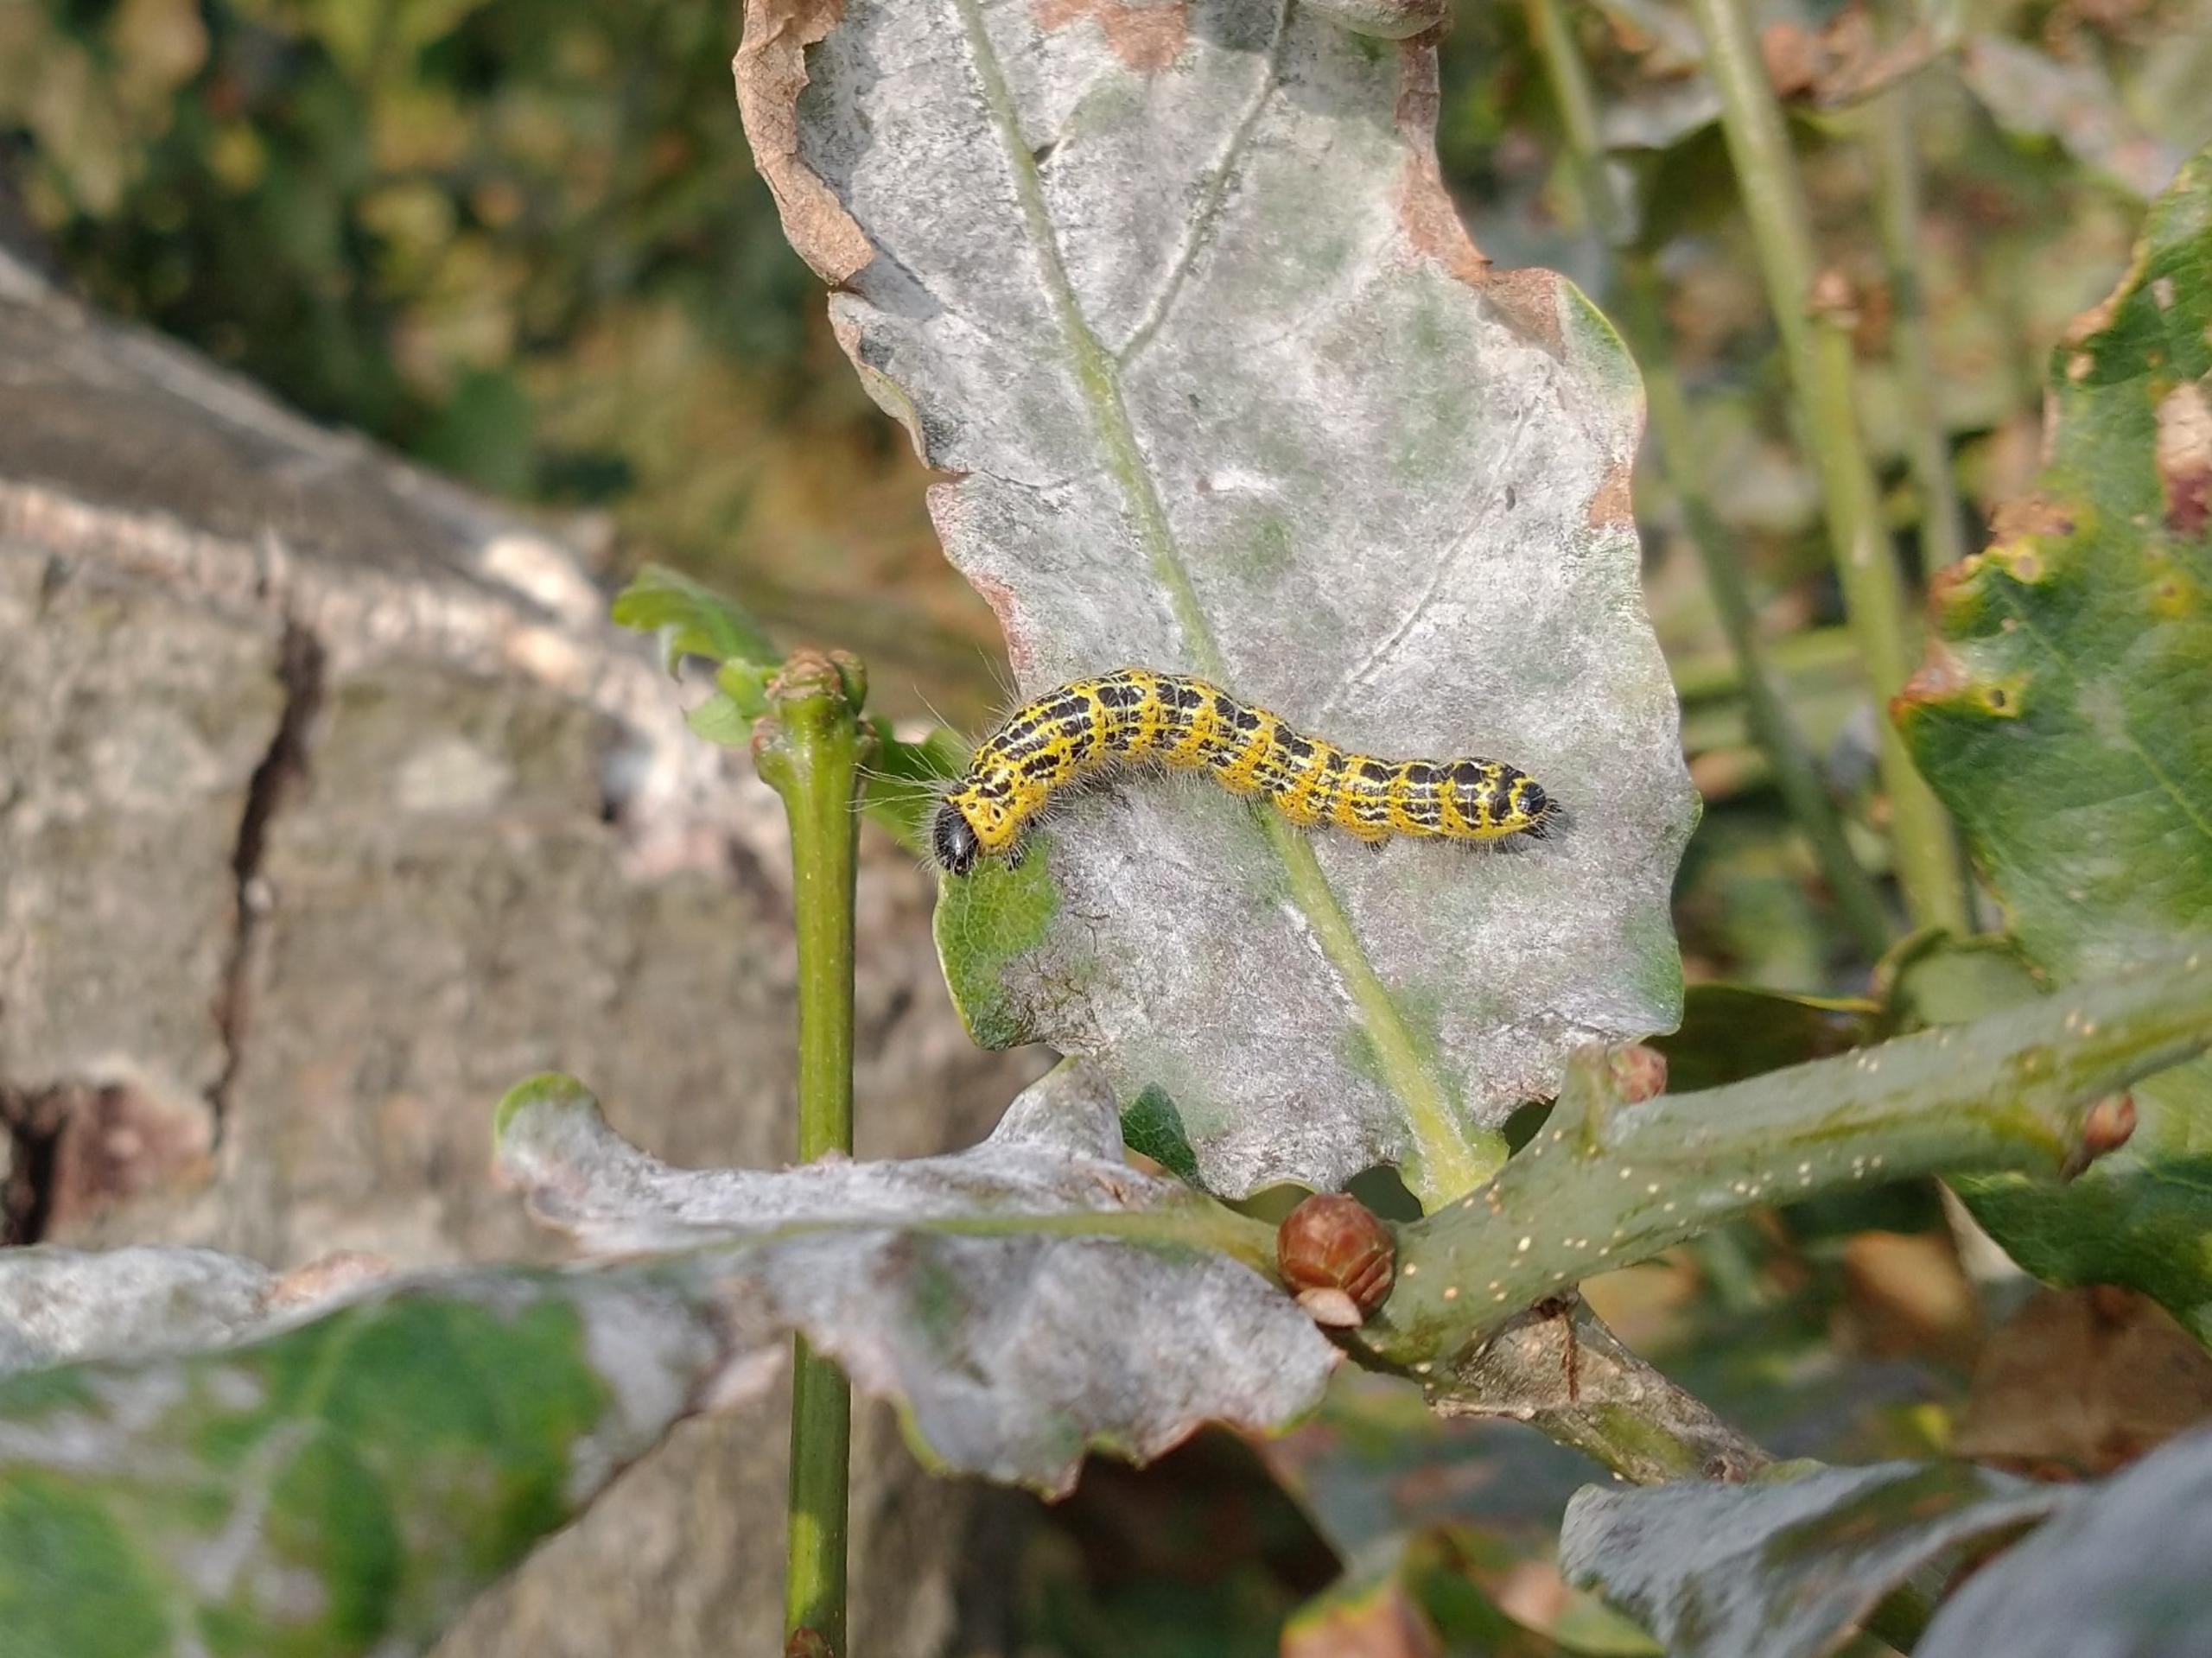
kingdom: Animalia
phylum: Arthropoda
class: Insecta
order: Lepidoptera
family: Notodontidae
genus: Phalera
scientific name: Phalera bucephala
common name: Måneplet
